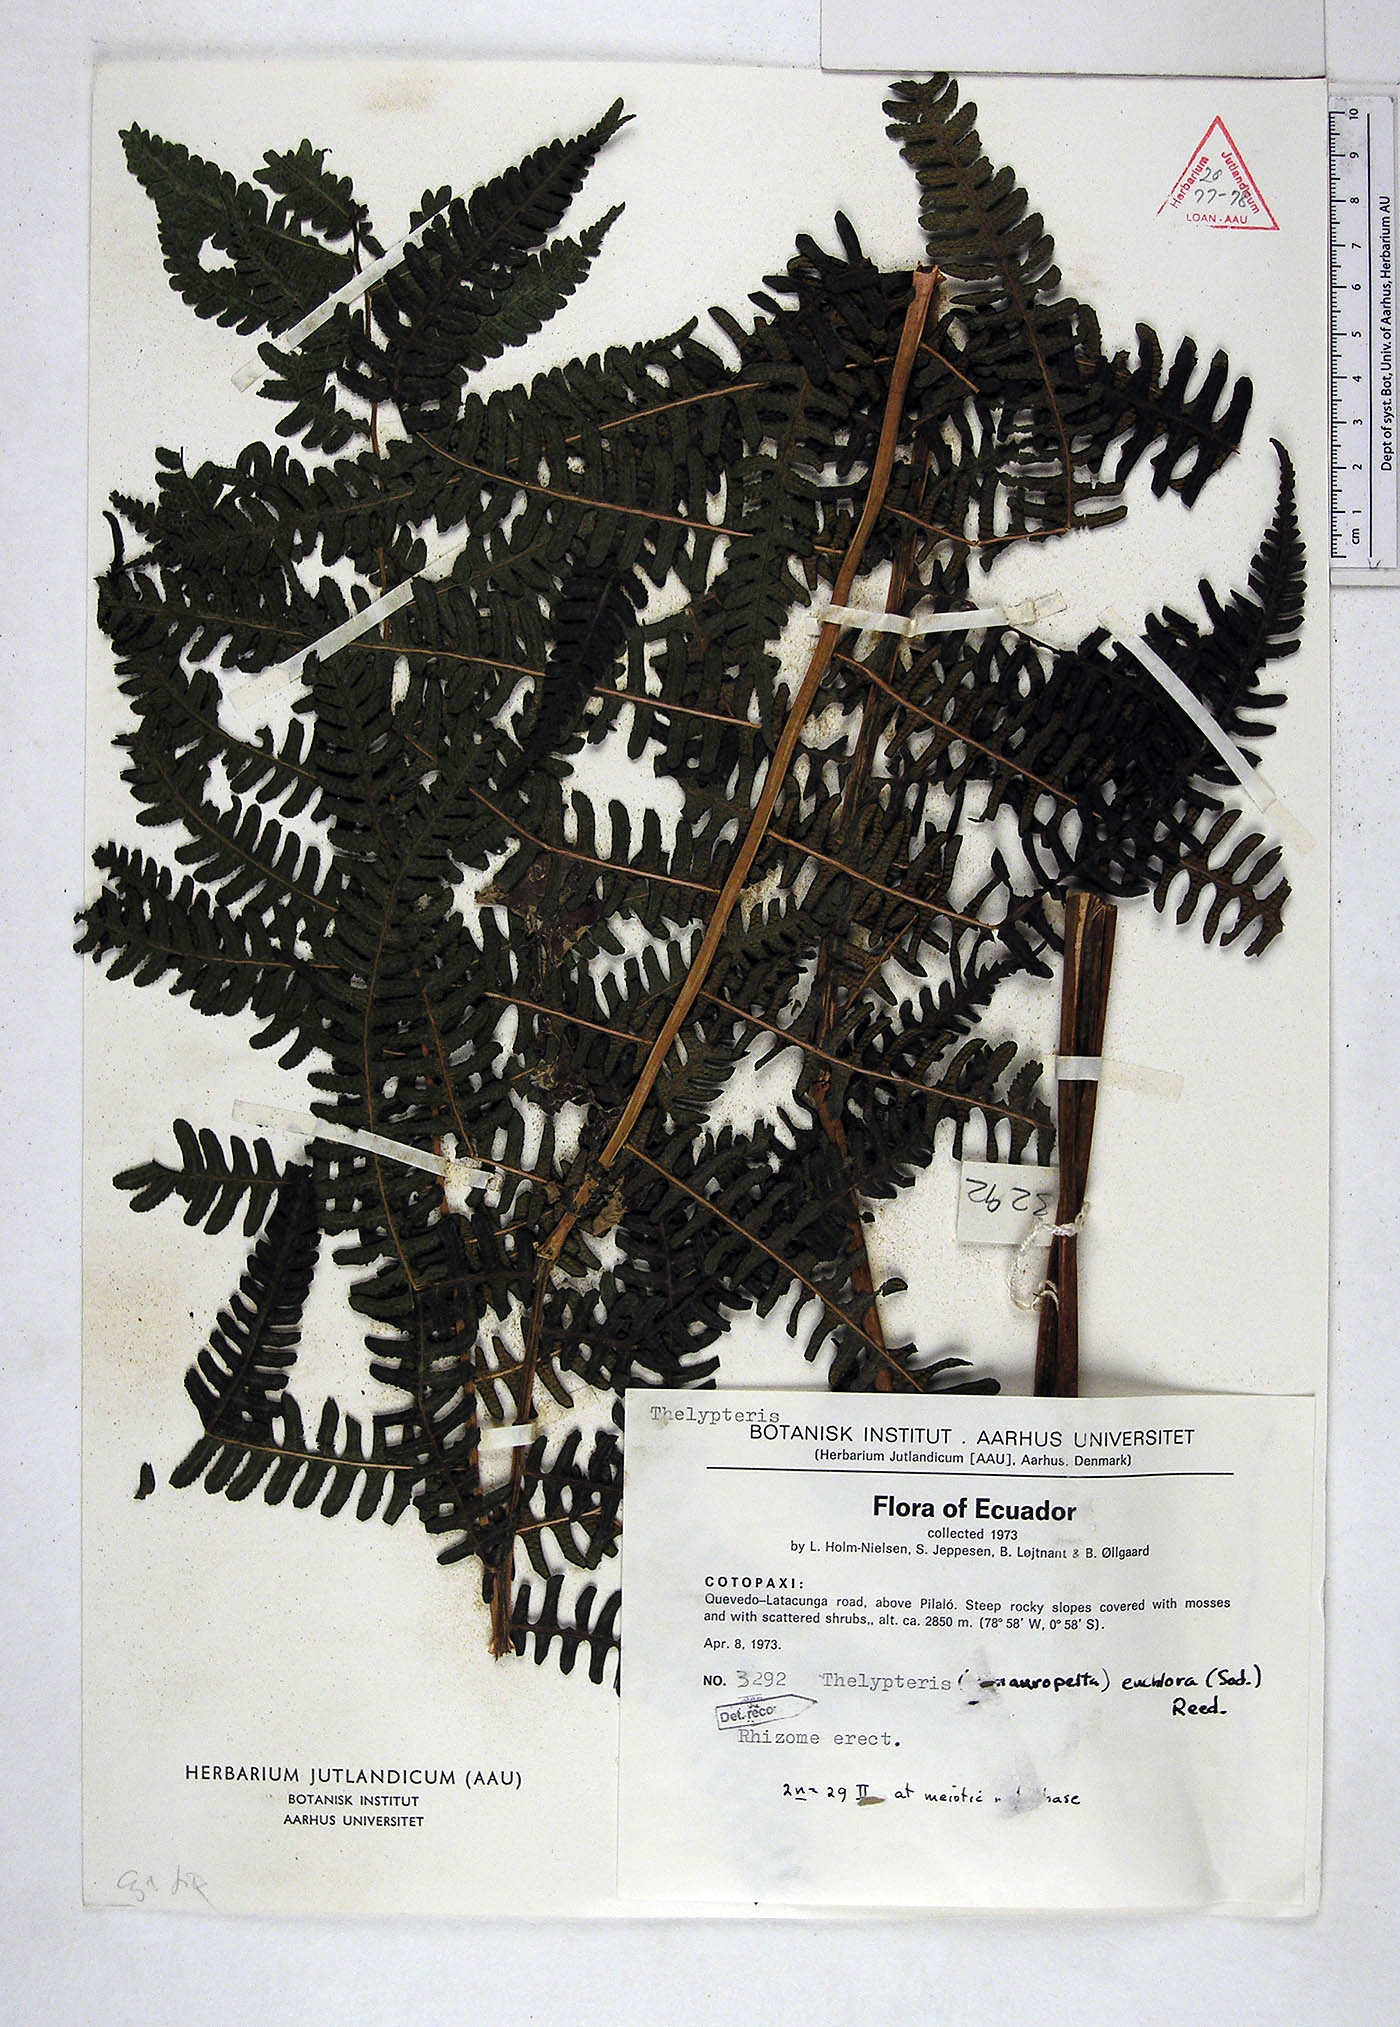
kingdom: Plantae
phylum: Tracheophyta
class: Polypodiopsida
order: Polypodiales
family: Thelypteridaceae
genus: Amauropelta
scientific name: Amauropelta euchlora
